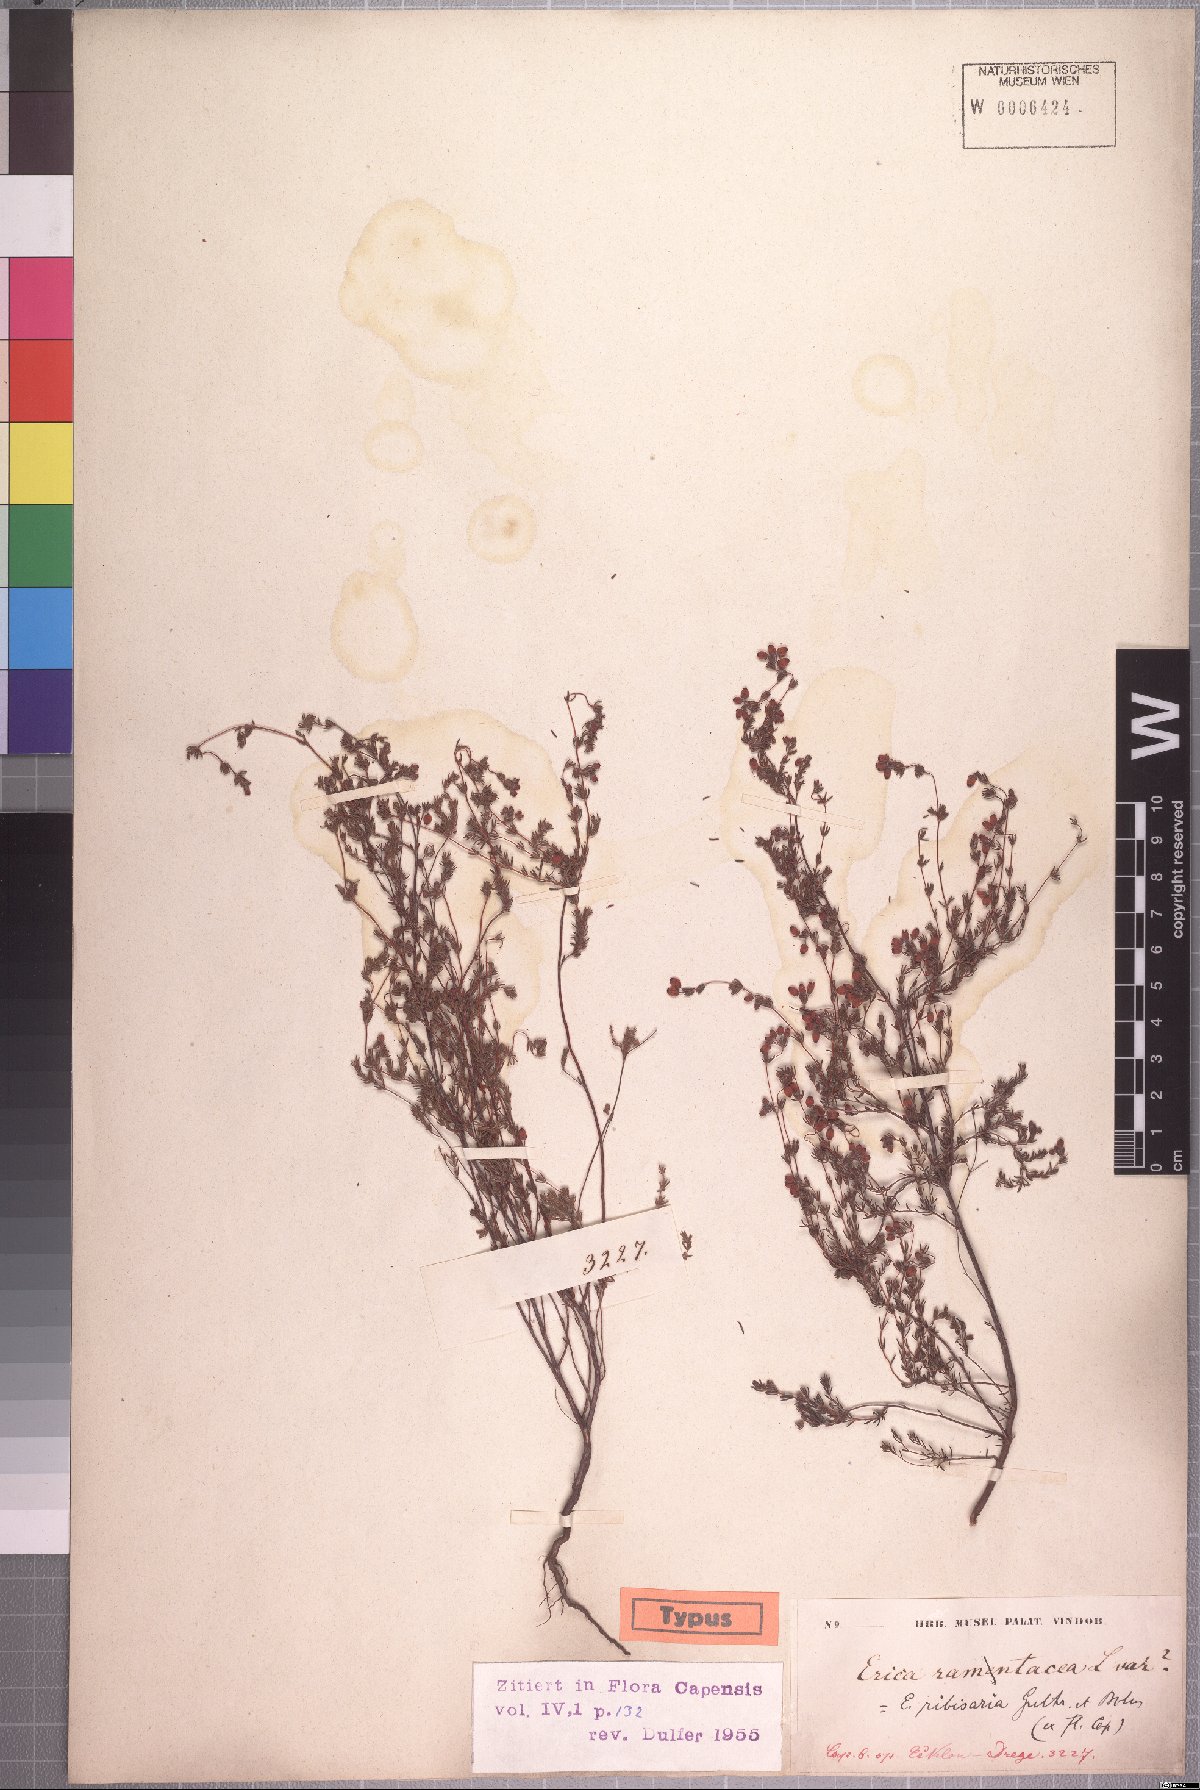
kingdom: Plantae
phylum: Tracheophyta
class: Magnoliopsida
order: Ericales
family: Ericaceae
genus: Erica
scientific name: Erica ribisaria
